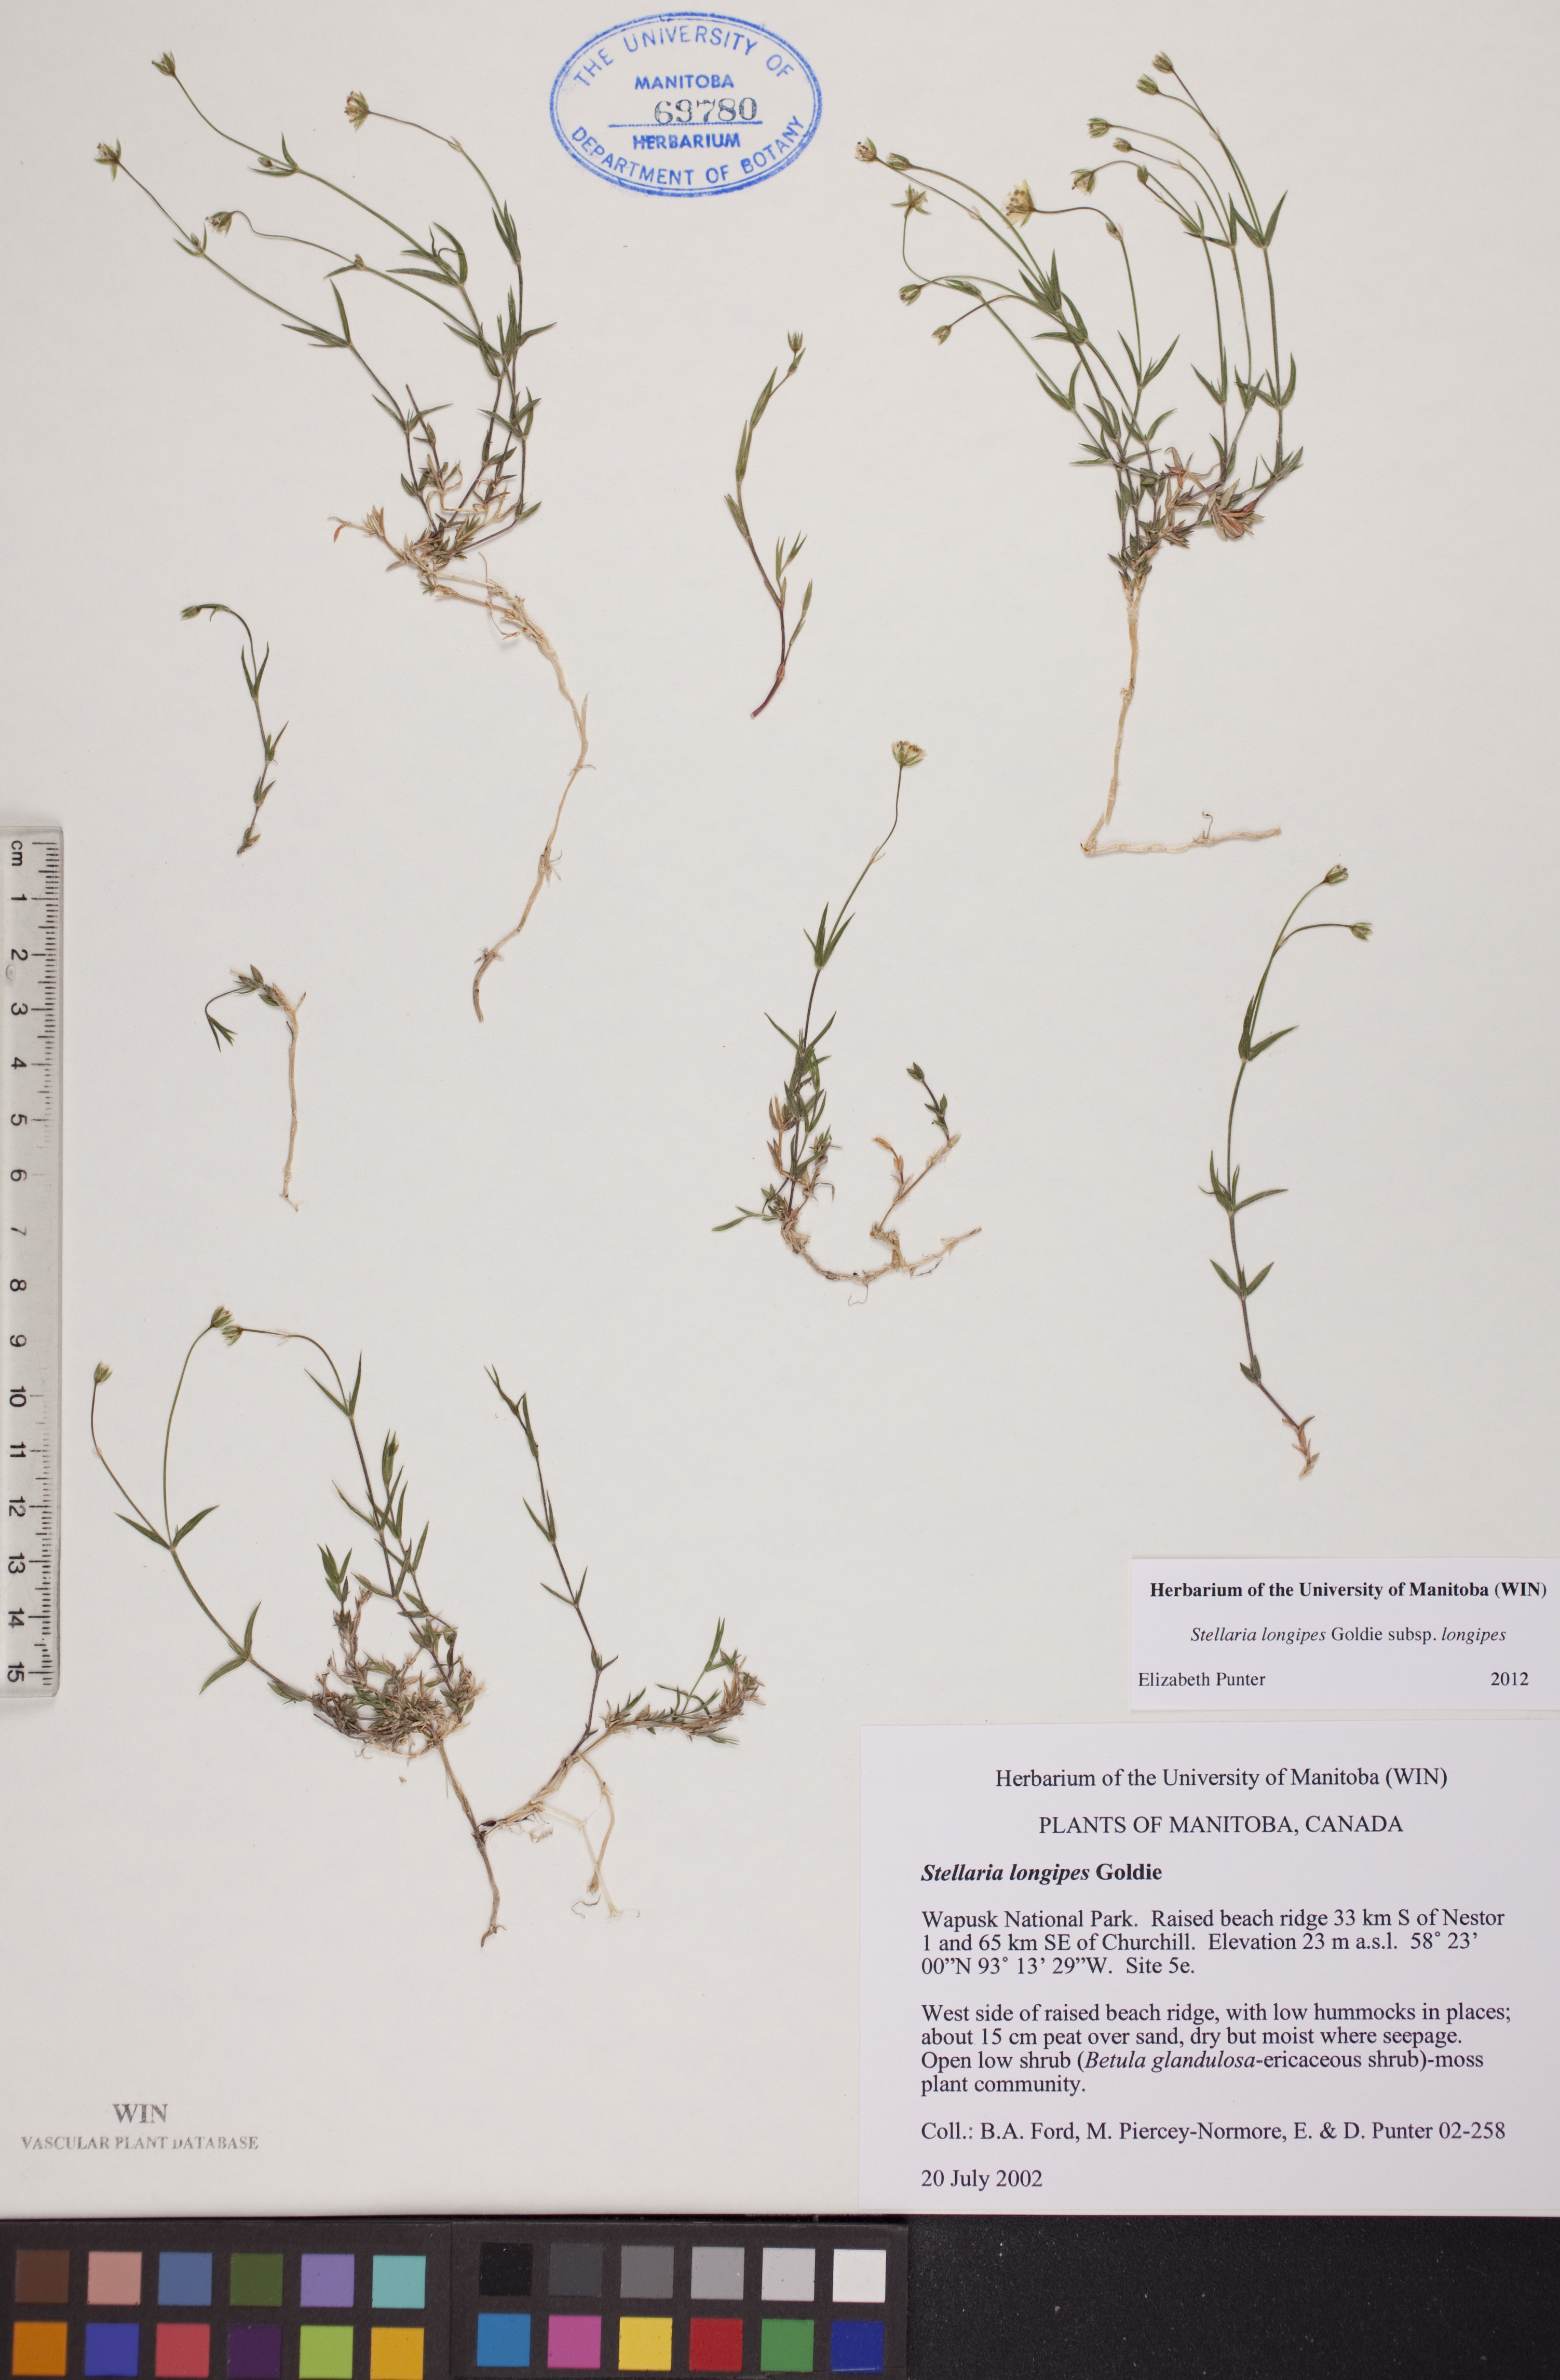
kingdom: Plantae
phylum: Tracheophyta
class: Magnoliopsida
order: Caryophyllales
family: Caryophyllaceae
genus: Stellaria
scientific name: Stellaria longipes
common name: Goldie's starwort
